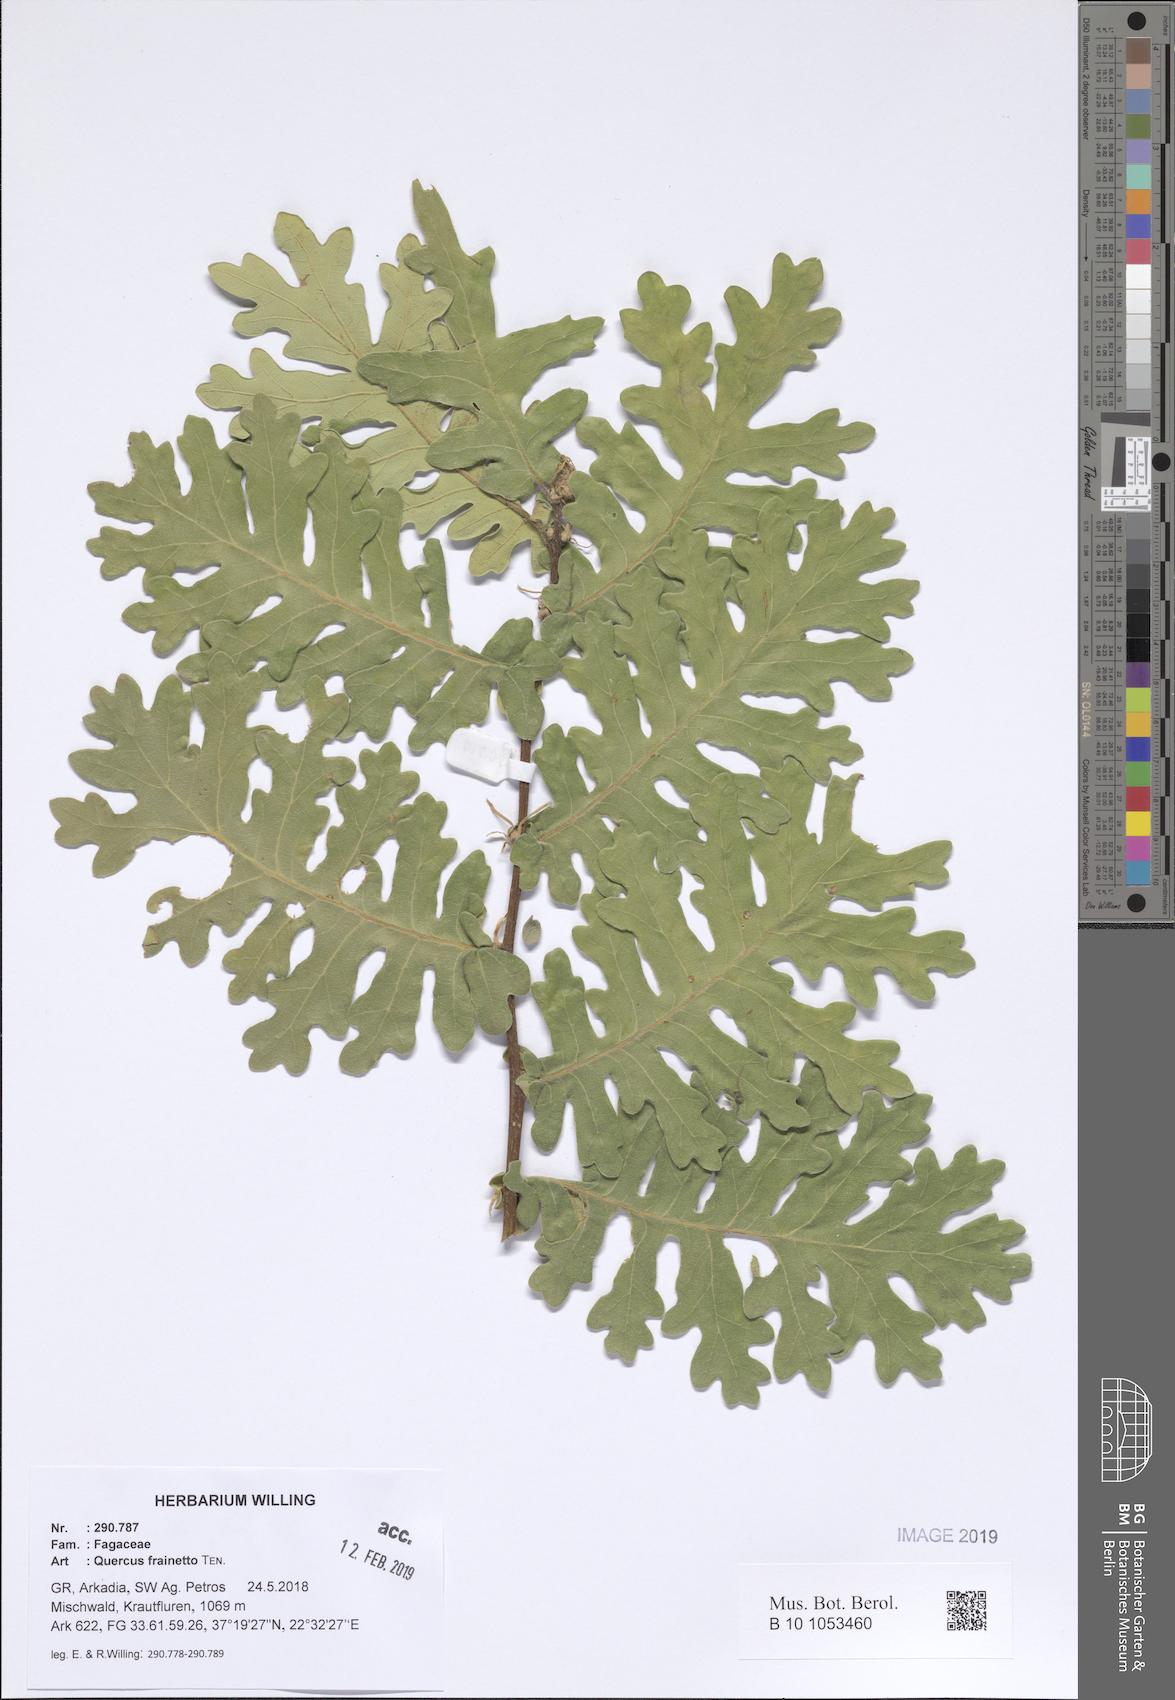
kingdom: Plantae
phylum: Tracheophyta
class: Magnoliopsida
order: Fagales
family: Fagaceae
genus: Quercus
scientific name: Quercus conferta
